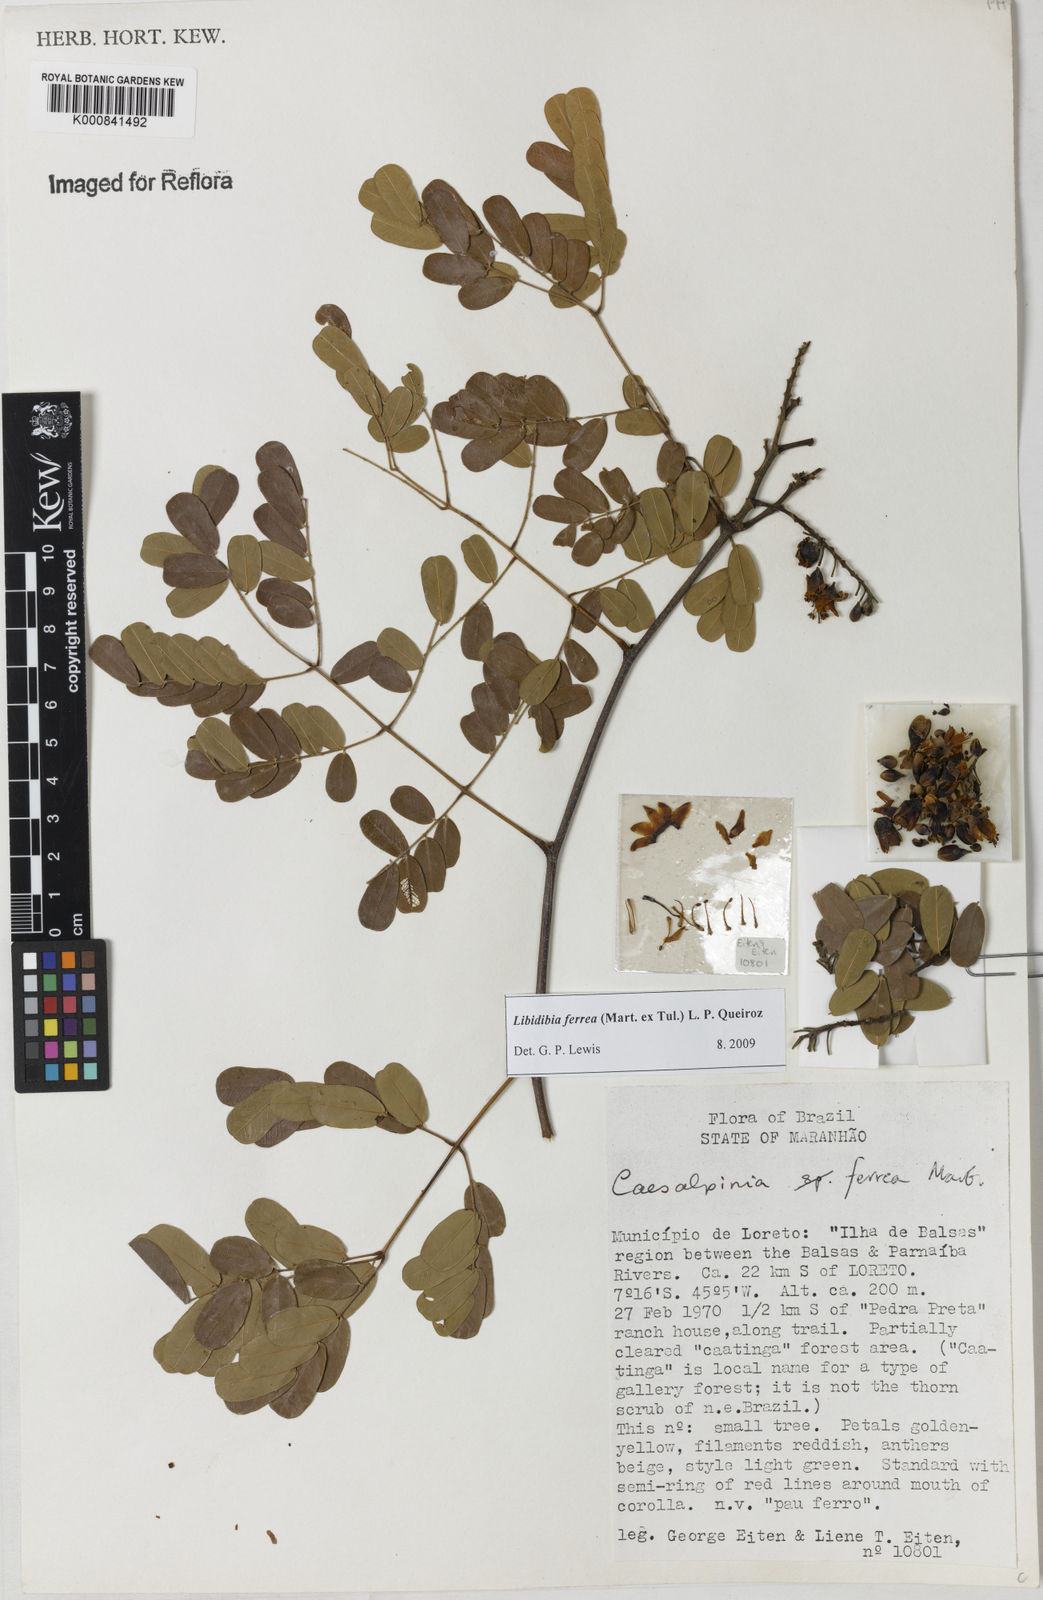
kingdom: Plantae
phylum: Tracheophyta
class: Magnoliopsida
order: Fabales
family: Fabaceae
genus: Libidibia
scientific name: Libidibia ferrea
